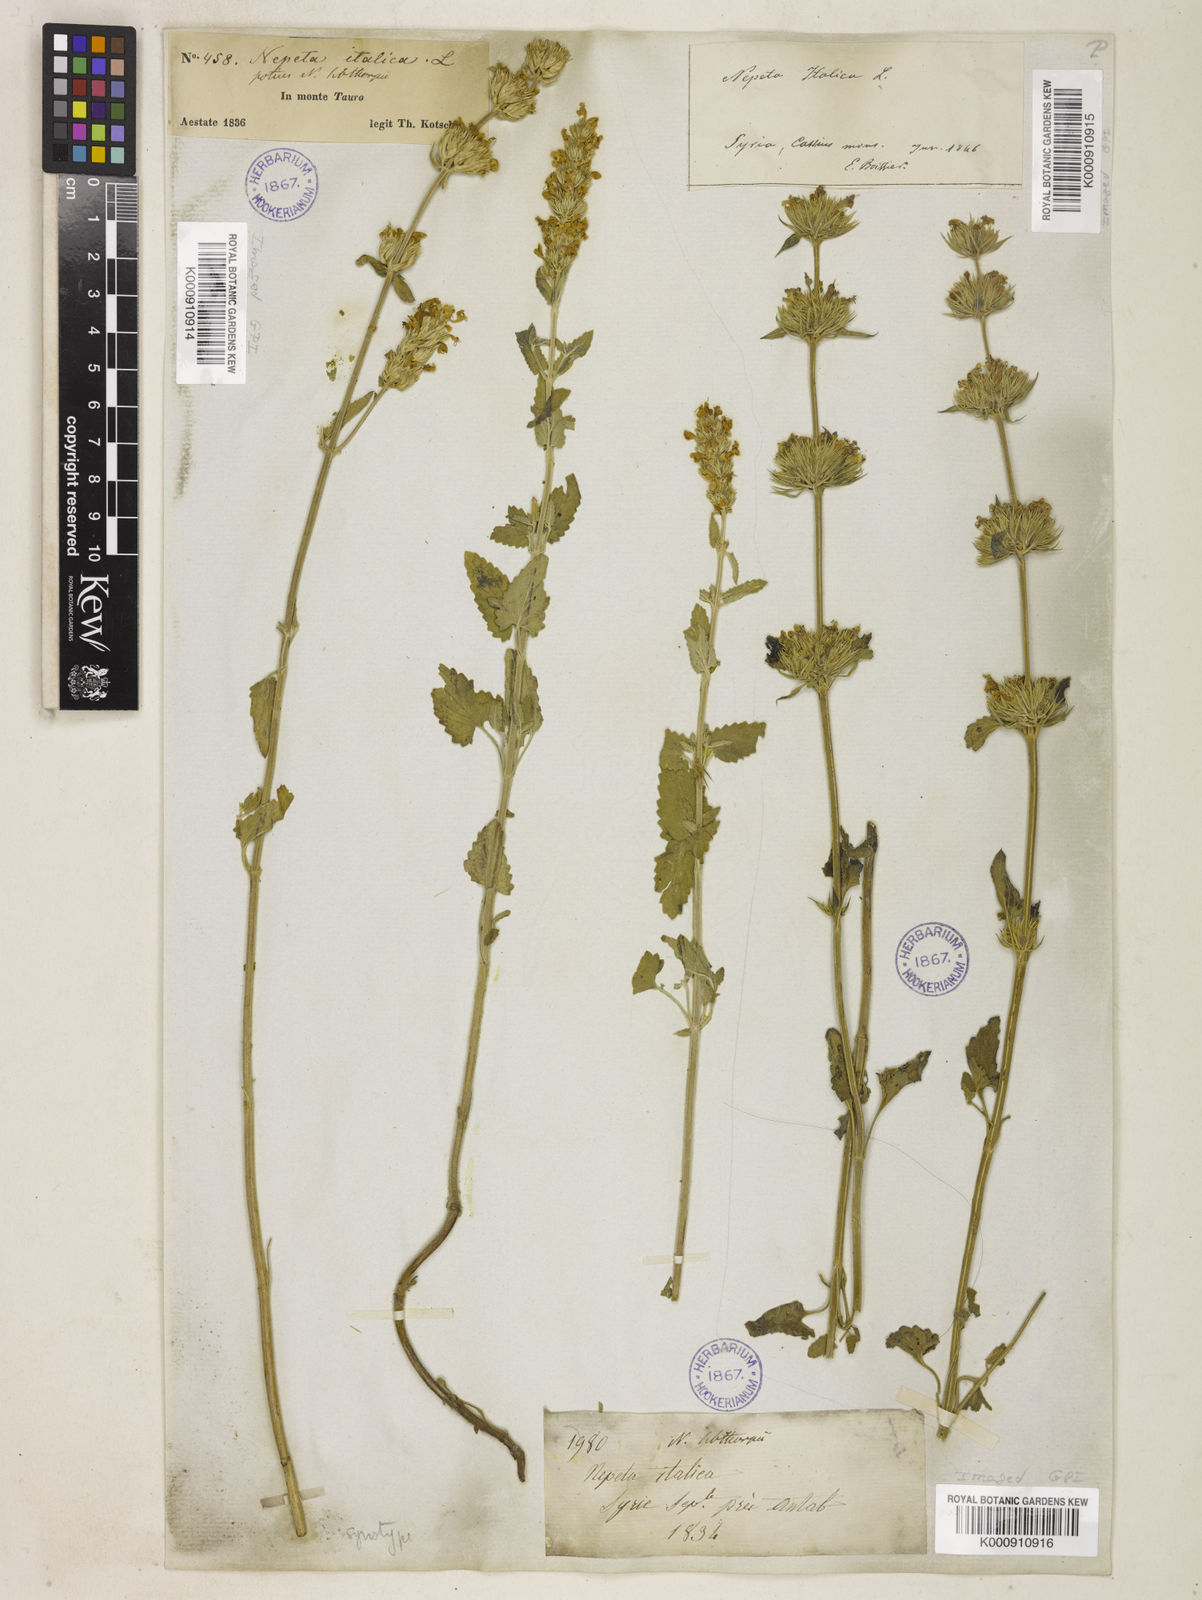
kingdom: Plantae
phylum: Tracheophyta
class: Magnoliopsida
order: Lamiales
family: Lamiaceae
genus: Nepeta
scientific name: Nepeta italica
